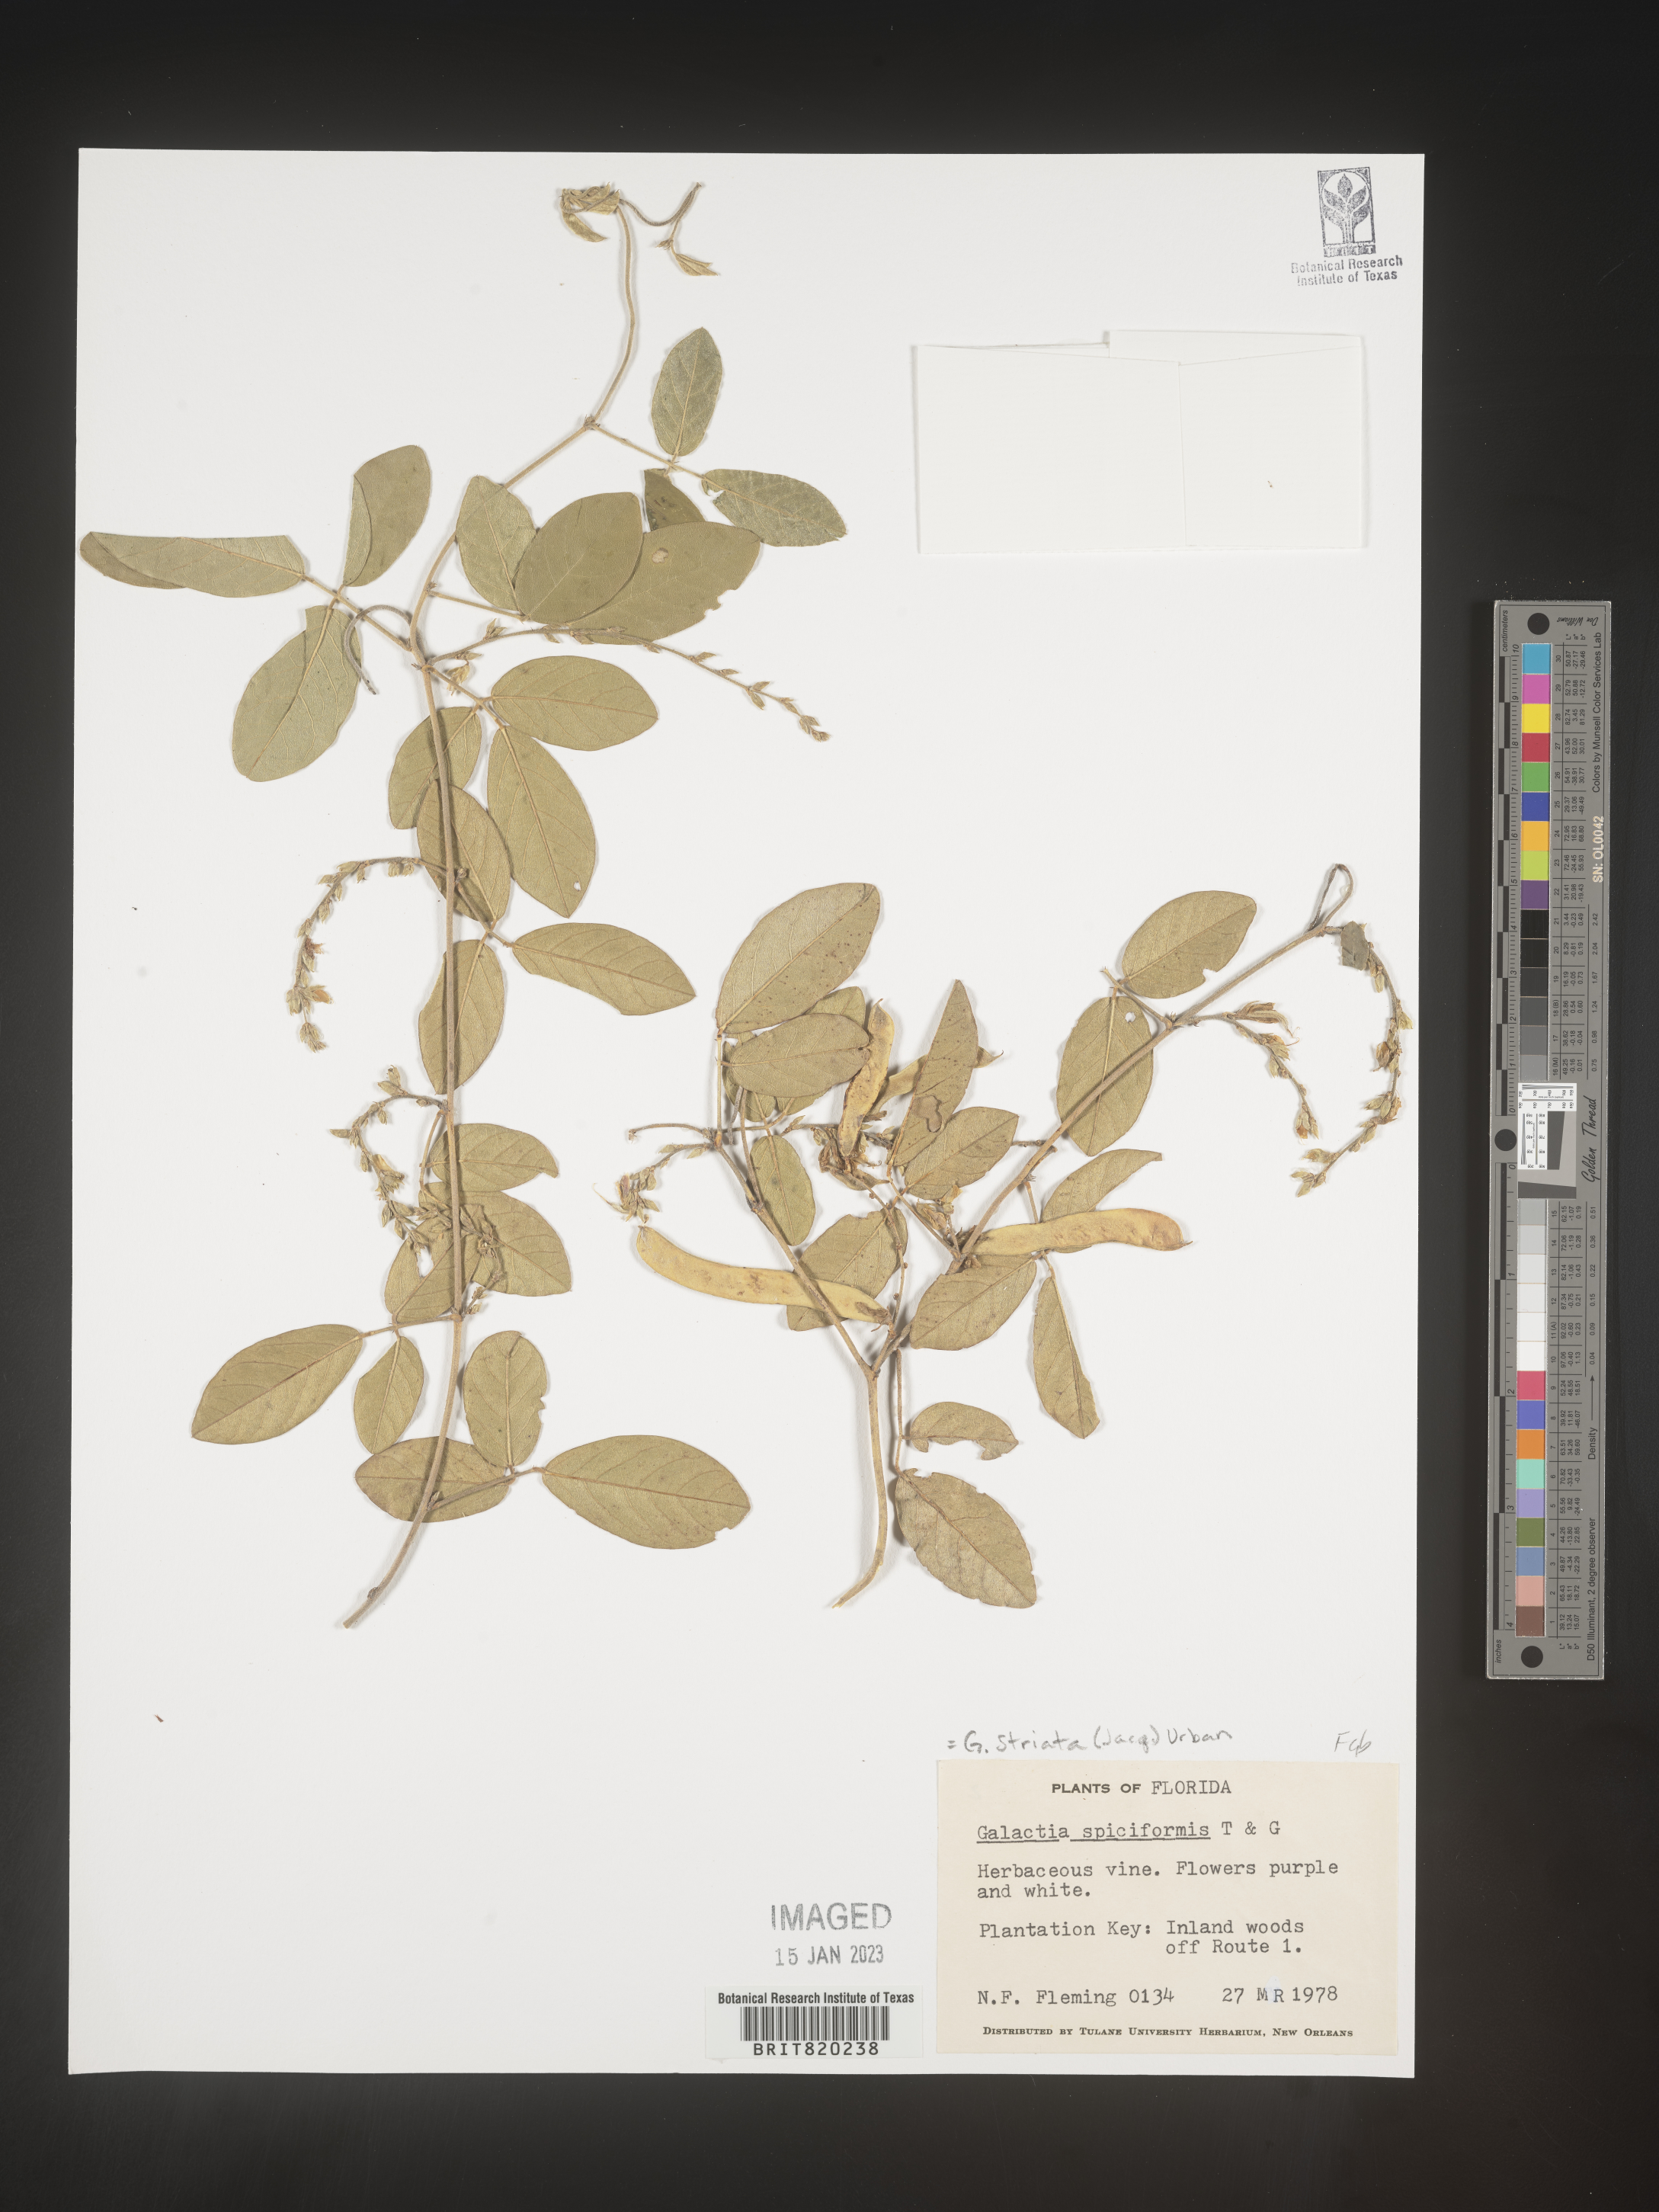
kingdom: Plantae
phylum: Tracheophyta
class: Magnoliopsida
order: Fabales
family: Fabaceae
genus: Galactia
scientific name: Galactia striata
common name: Florida hammock milkpea
